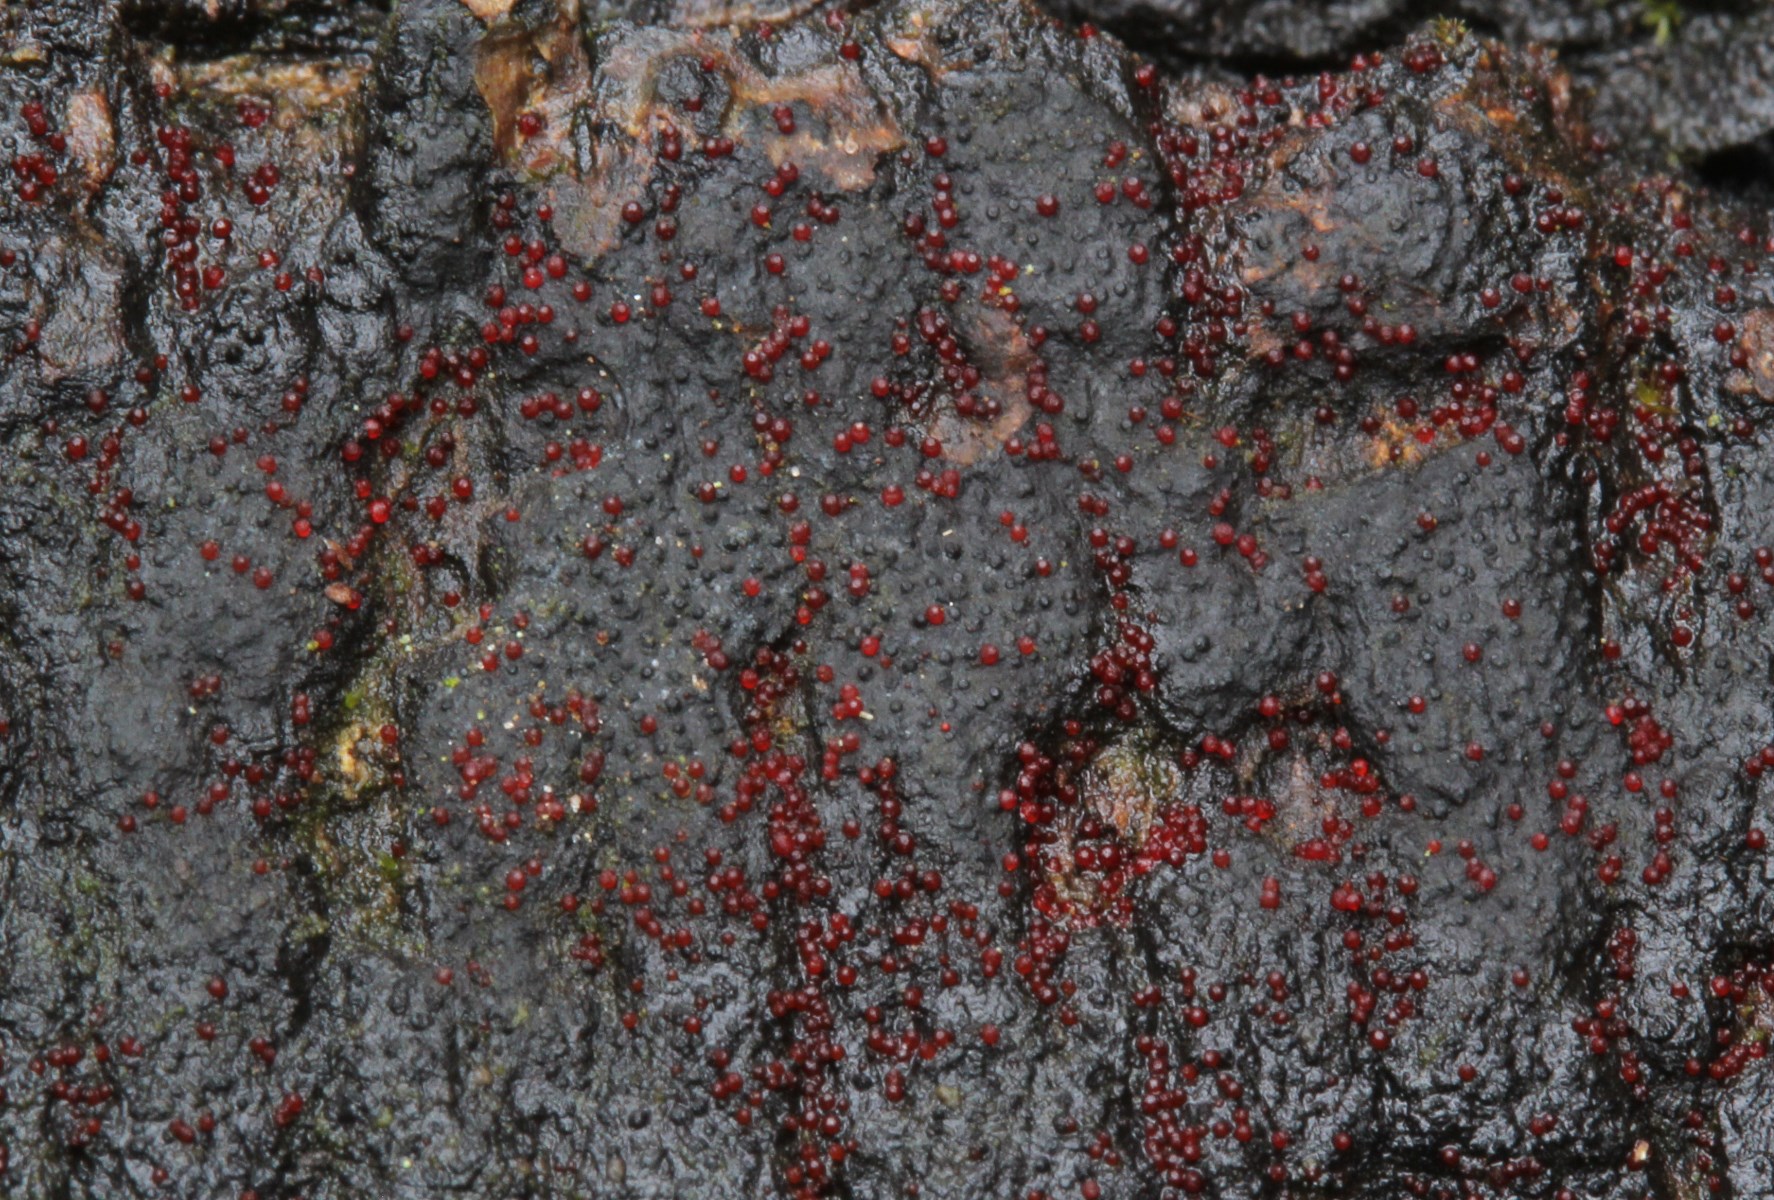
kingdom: Fungi
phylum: Ascomycota
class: Sordariomycetes
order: Hypocreales
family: Nectriaceae
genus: Dialonectria
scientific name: Dialonectria episphaeria
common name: kulskorpe-cinnobersvamp
